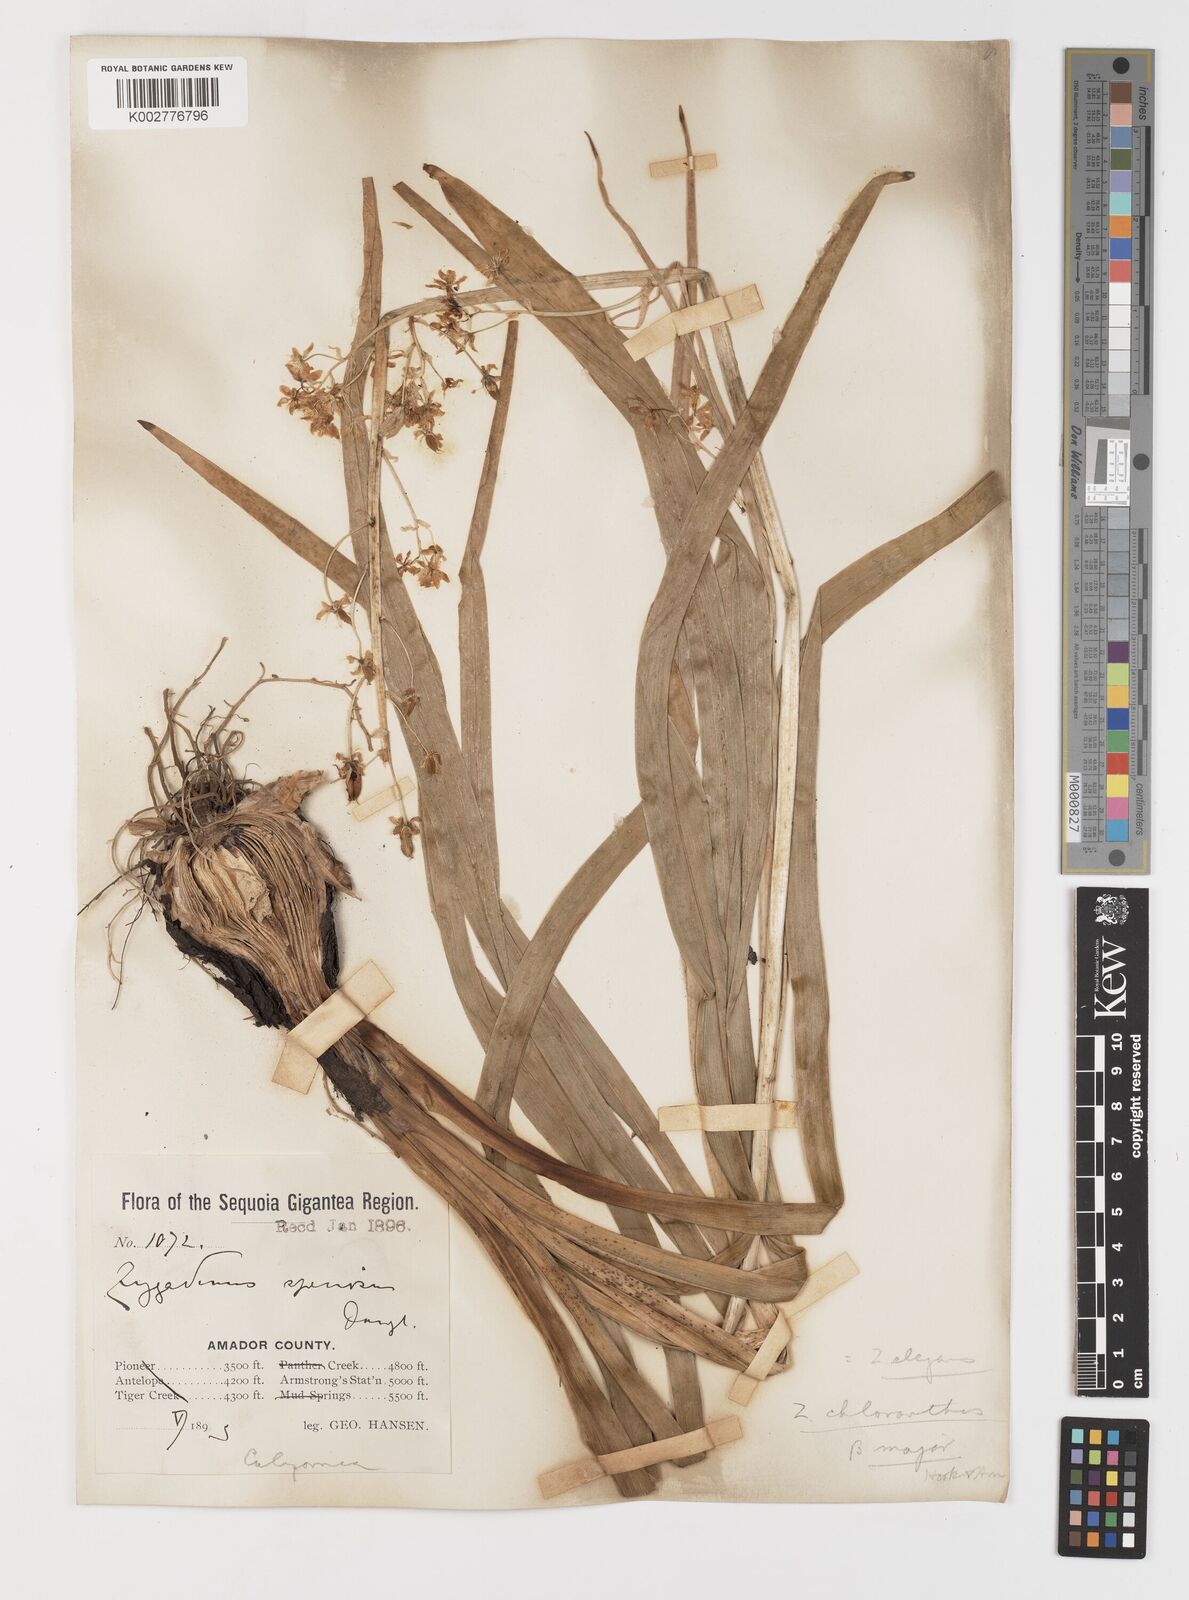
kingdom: Plantae
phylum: Tracheophyta
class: Liliopsida
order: Liliales
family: Melanthiaceae
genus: Anticlea
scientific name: Anticlea elegans
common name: Mountain death camas
